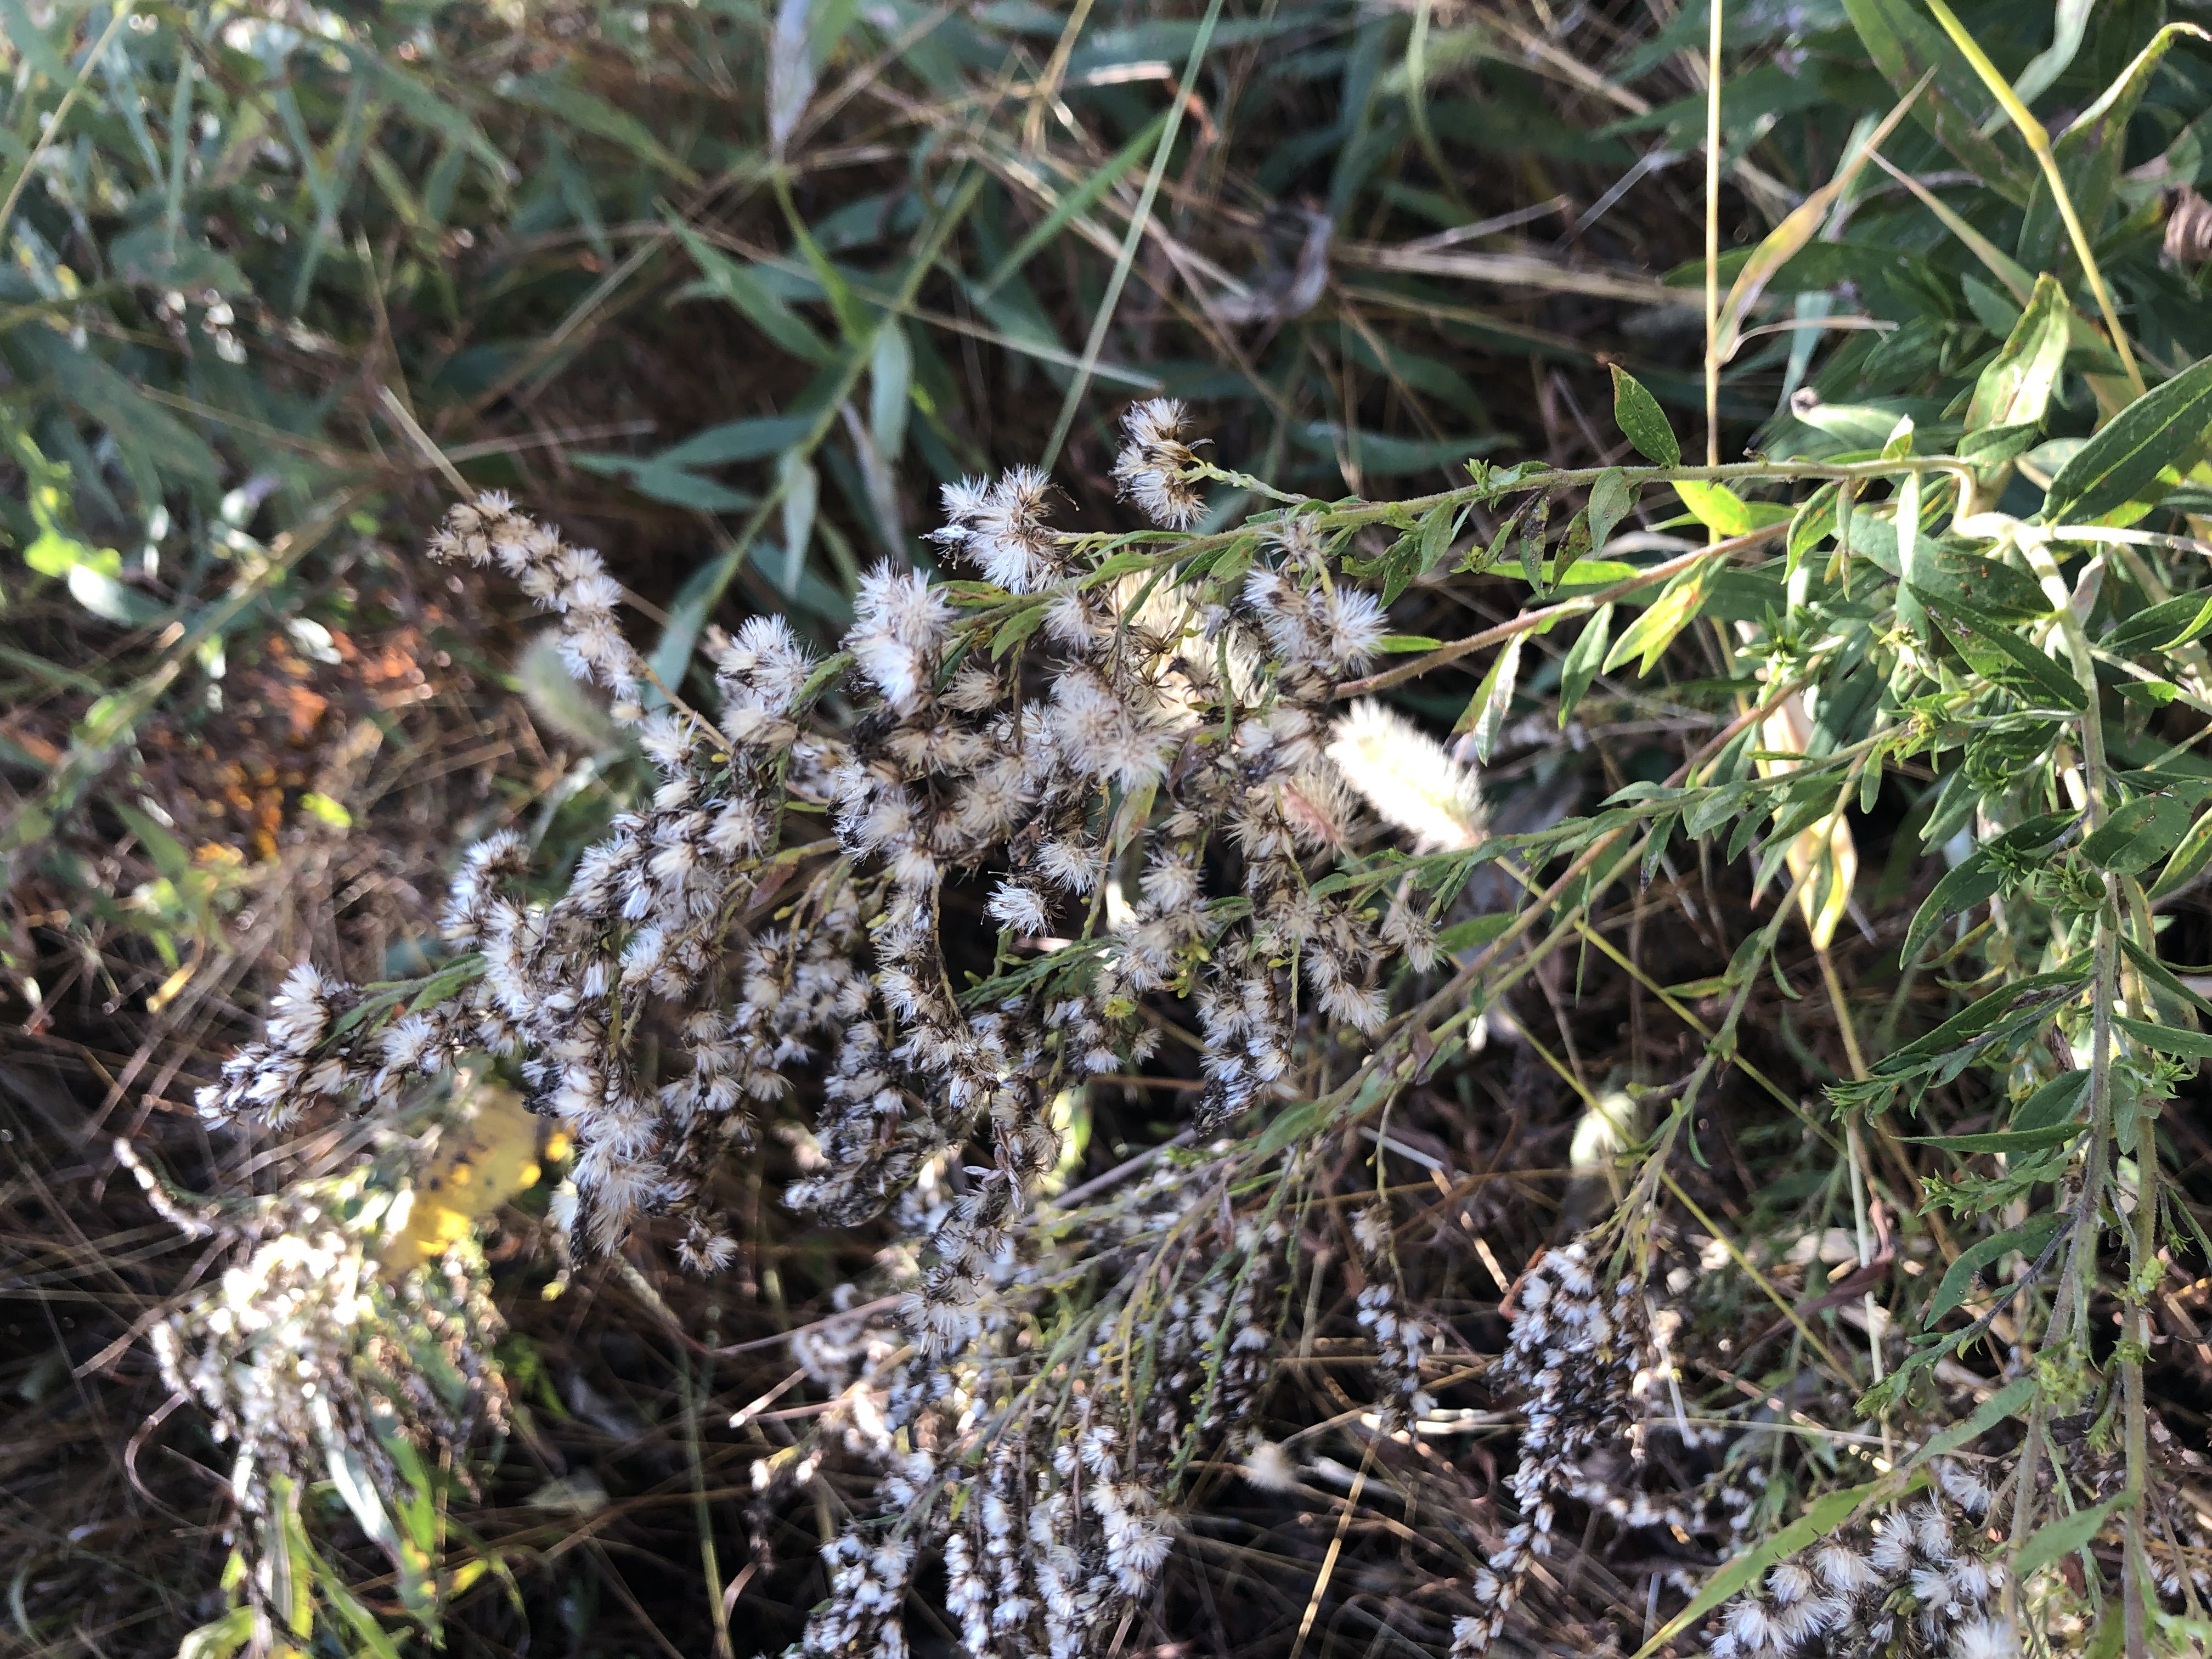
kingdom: Plantae
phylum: Tracheophyta
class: Magnoliopsida
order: Asterales
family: Asteraceae
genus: Solidago
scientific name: Solidago altissima
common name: late goldenrod
